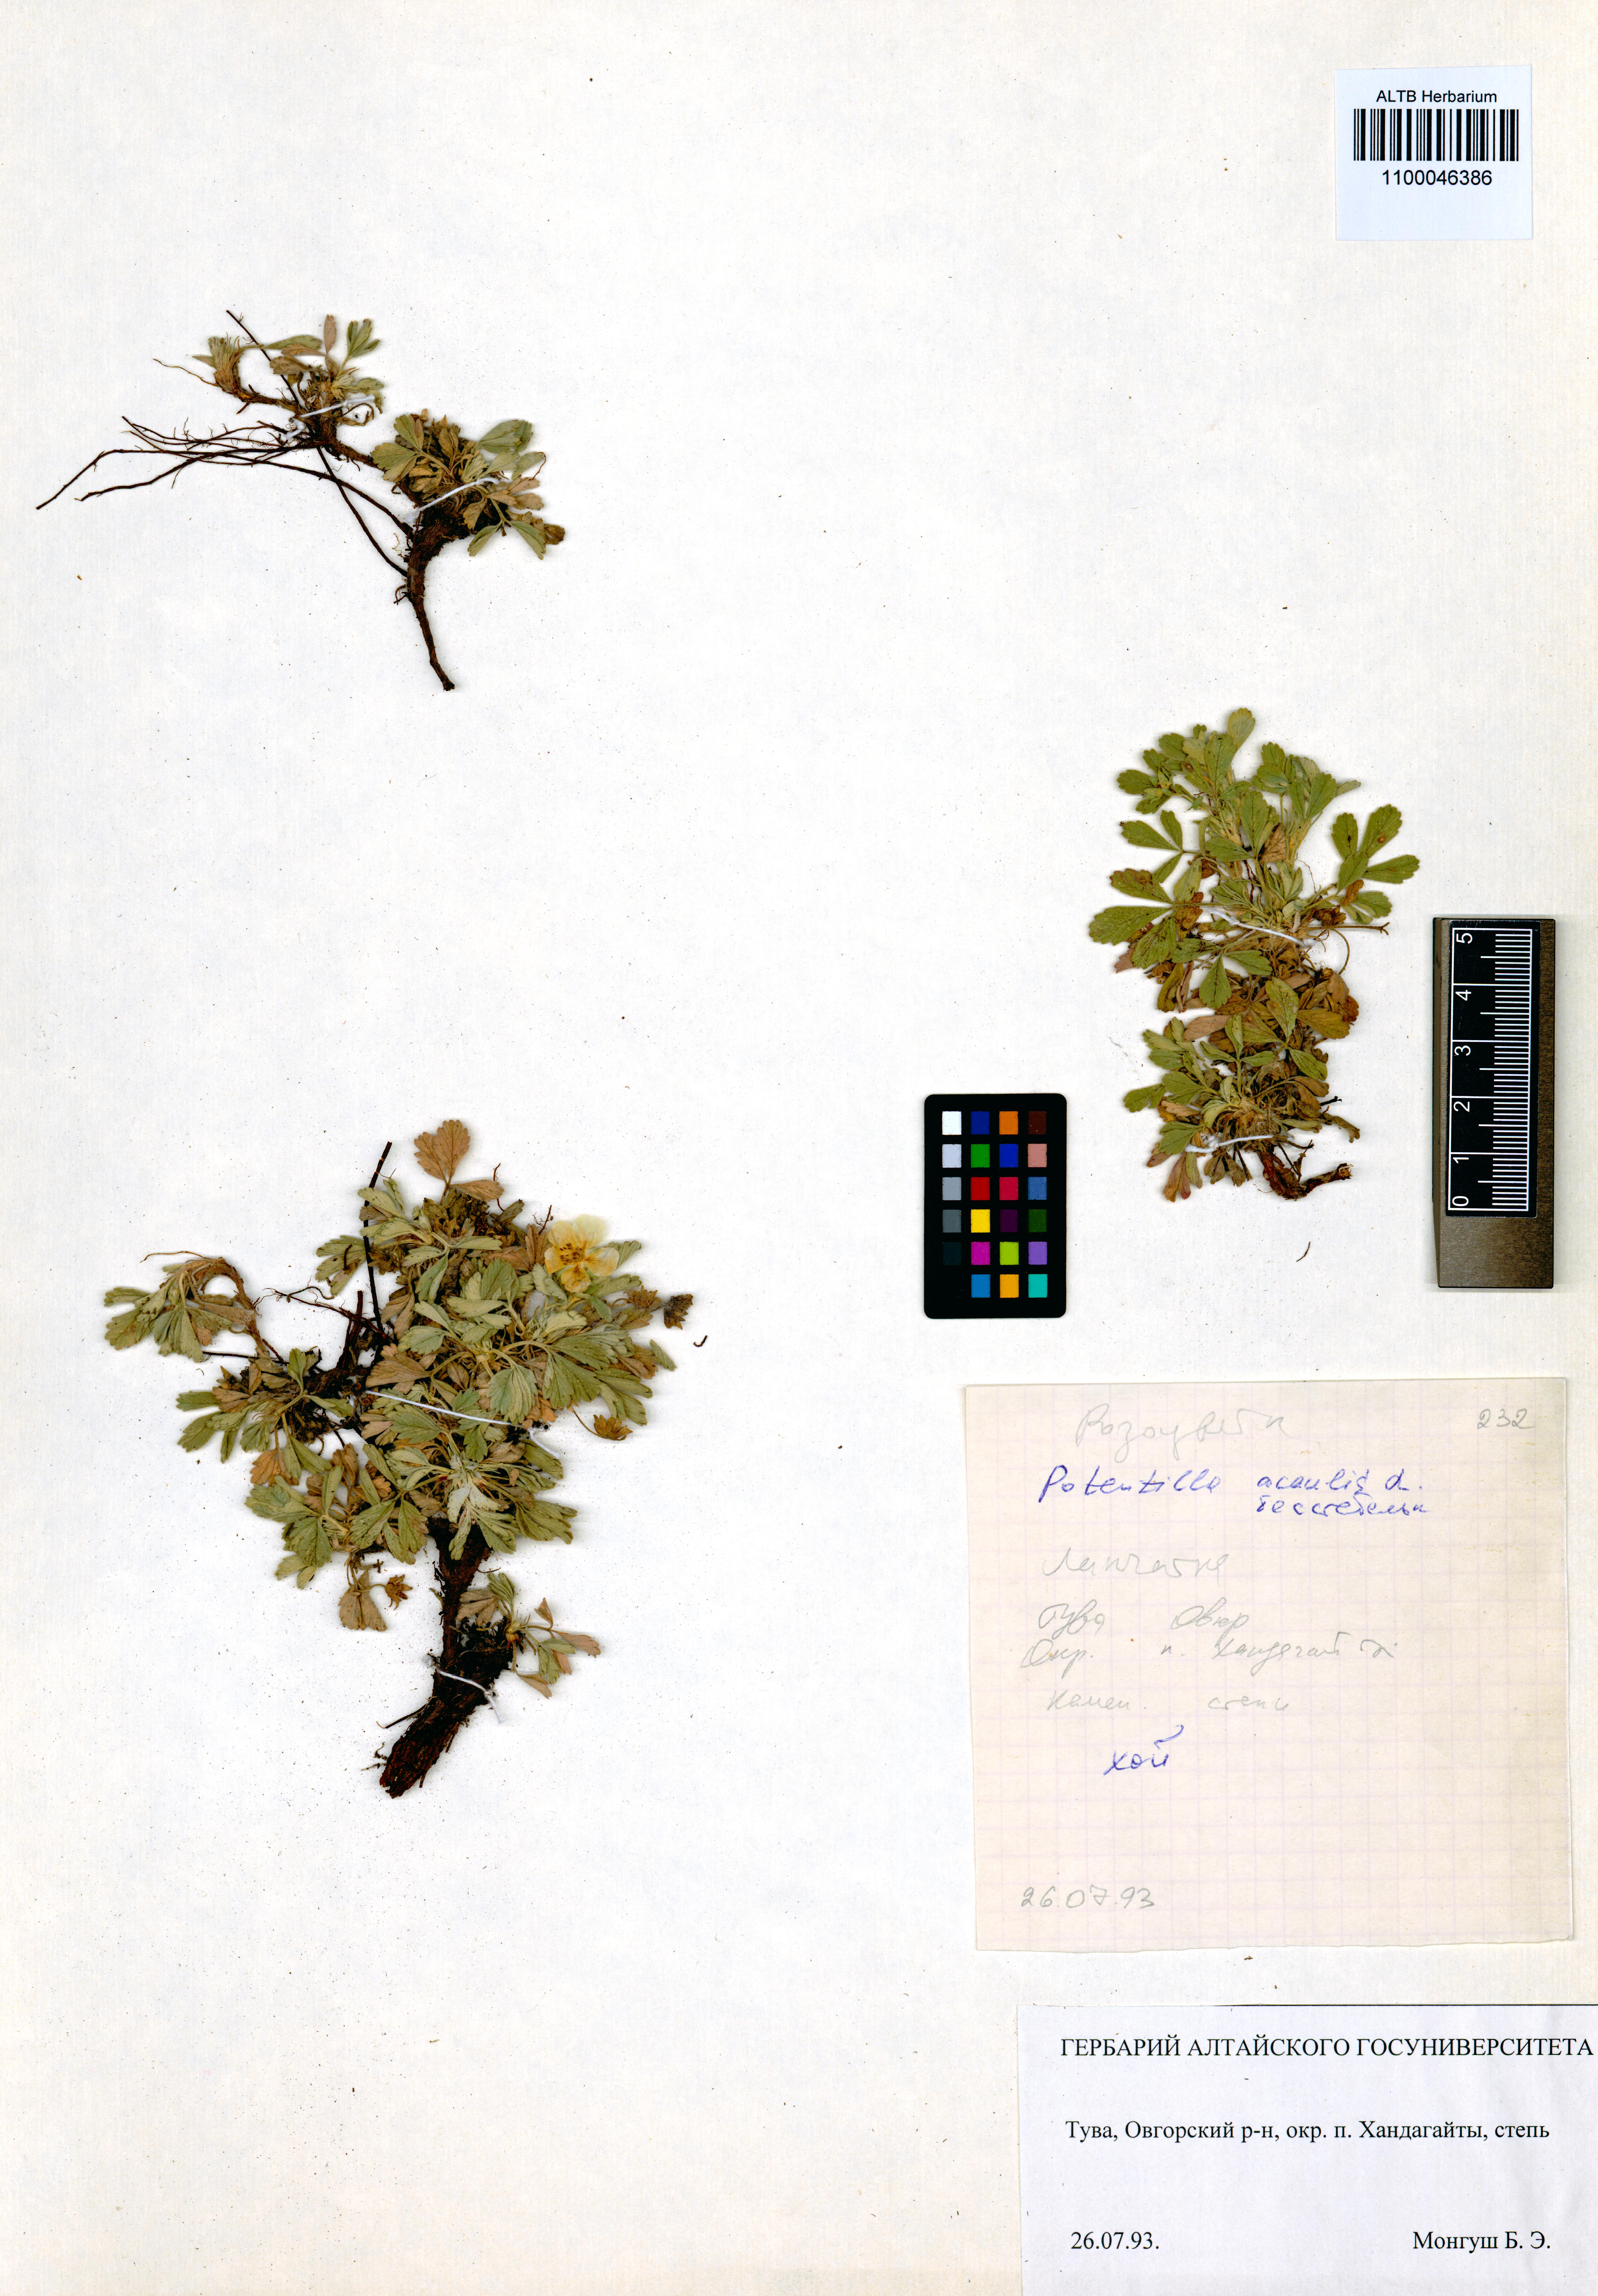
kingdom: Plantae
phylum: Tracheophyta
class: Magnoliopsida
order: Rosales
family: Rosaceae
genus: Potentilla
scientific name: Potentilla acaulis
